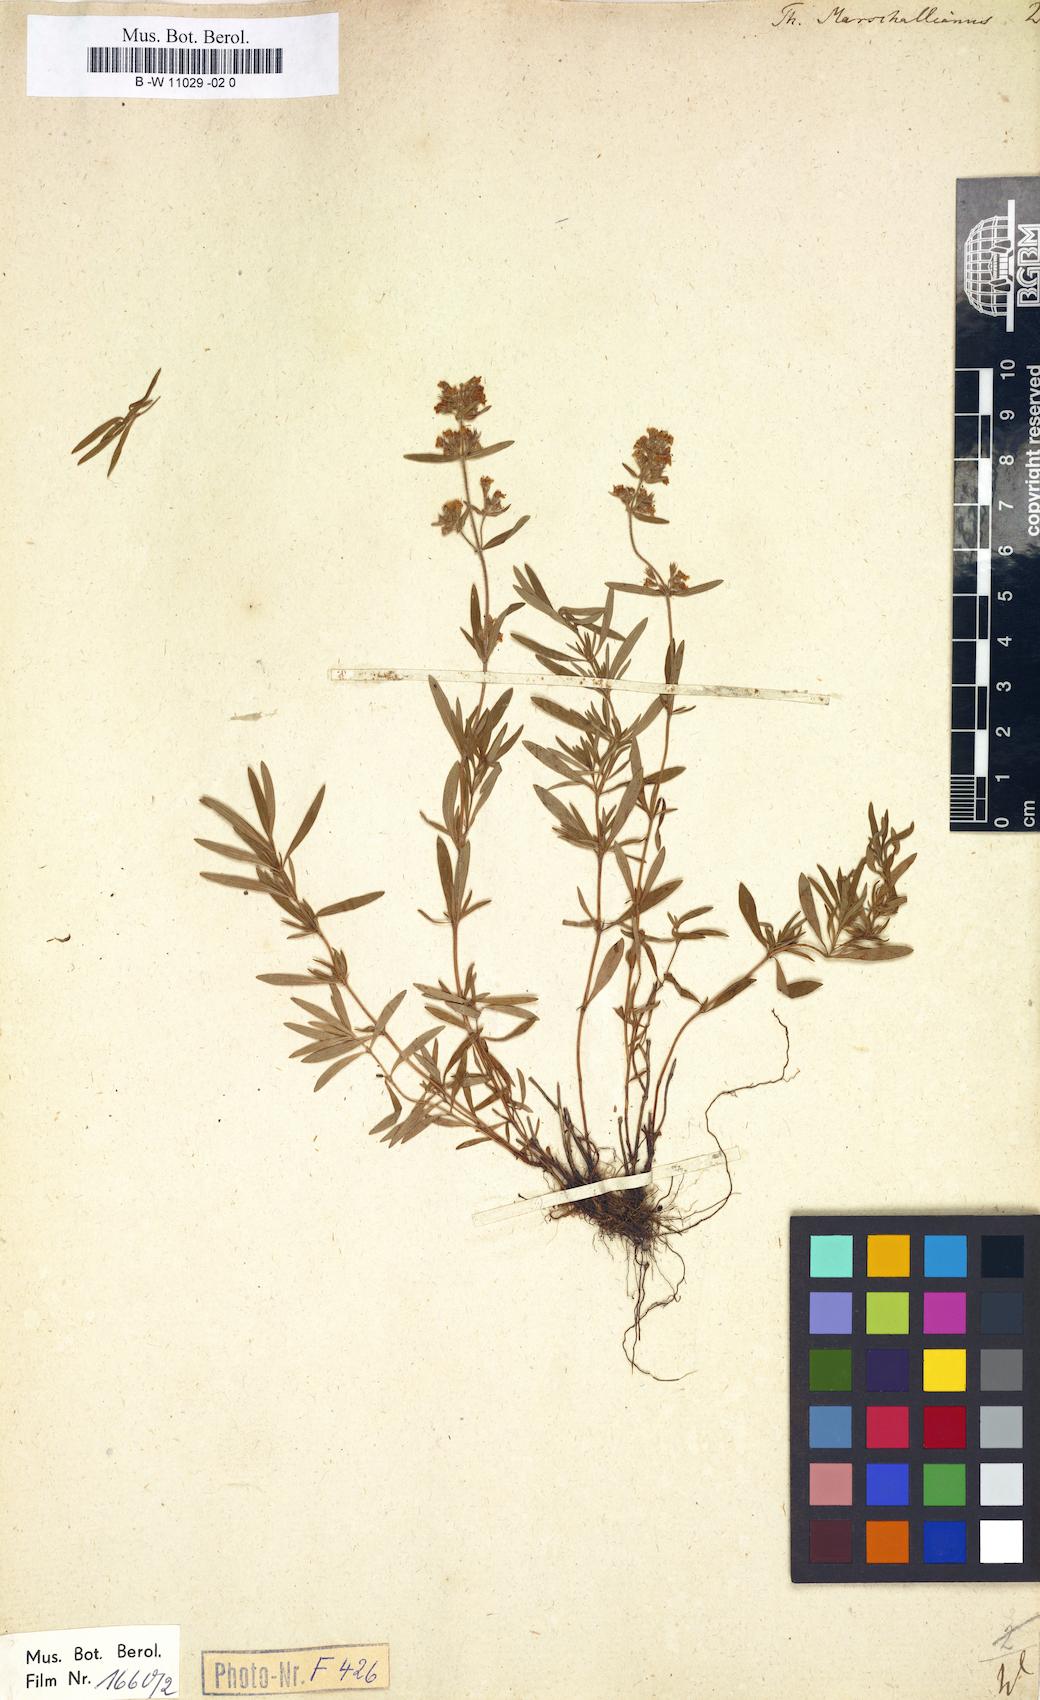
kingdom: Plantae
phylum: Tracheophyta
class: Magnoliopsida
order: Lamiales
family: Lamiaceae
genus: Thymus
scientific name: Thymus marschallianus
